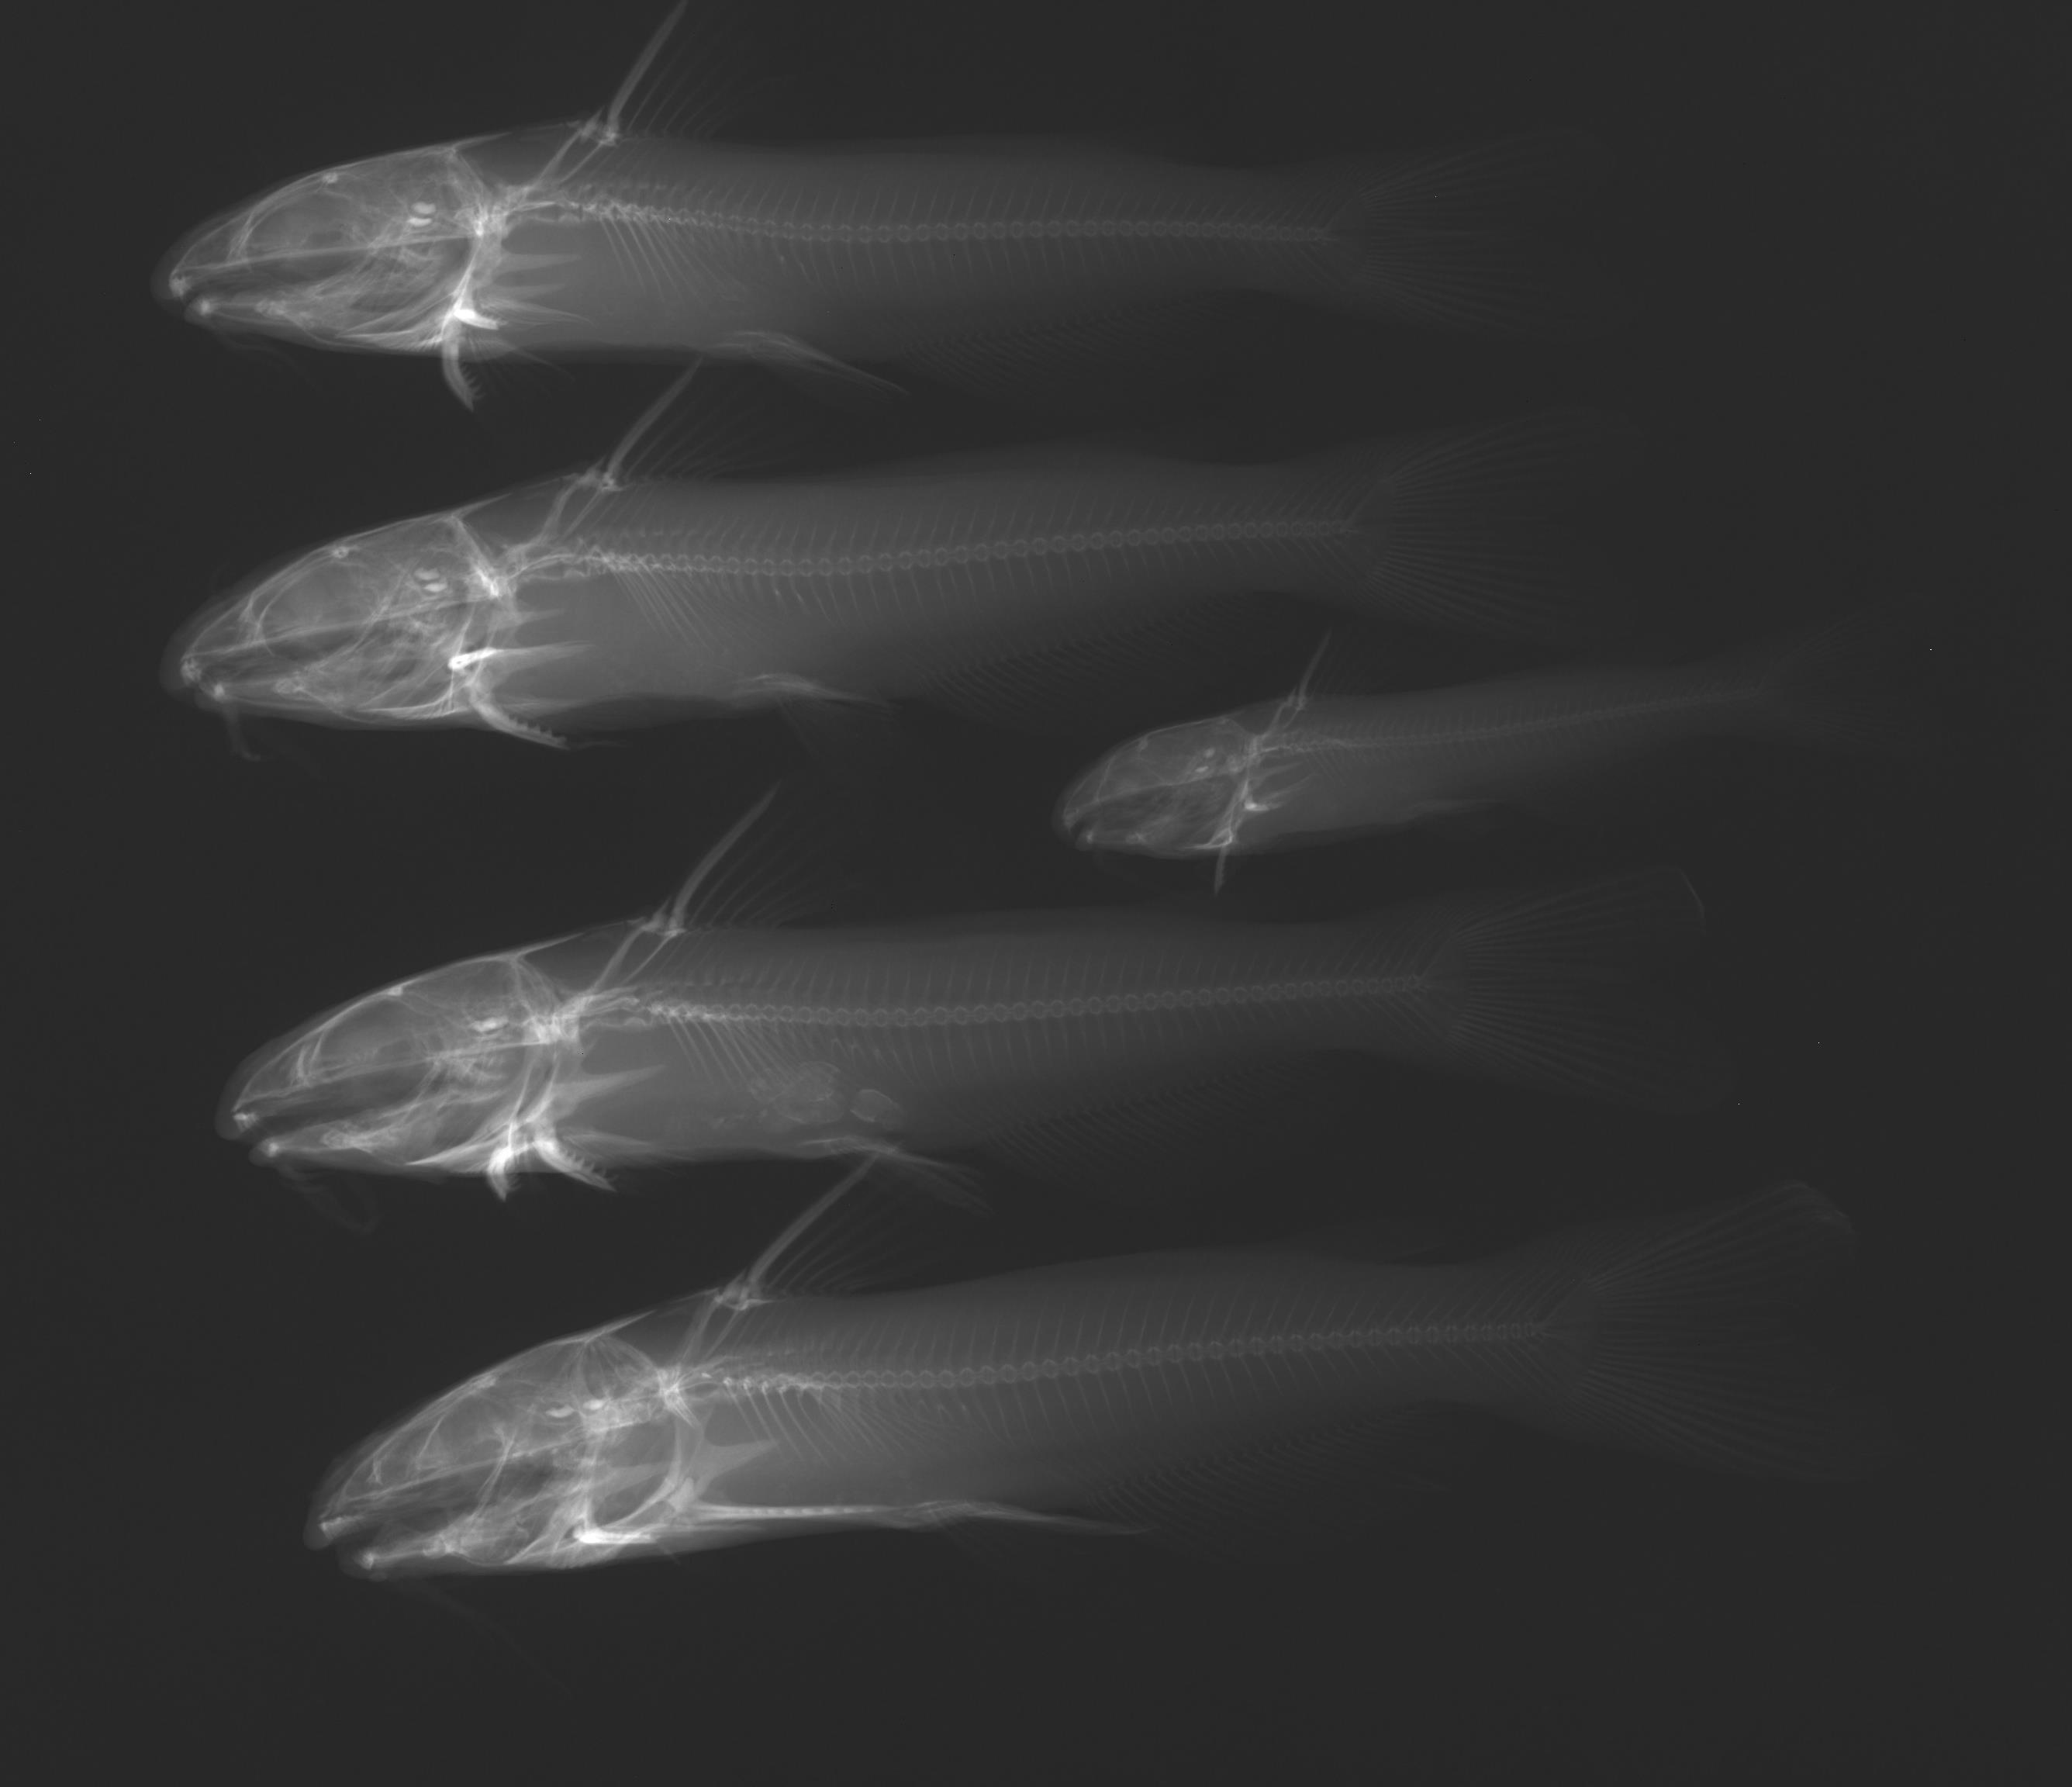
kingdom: Animalia
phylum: Chordata
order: Siluriformes
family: Ictaluridae
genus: Ictalurus
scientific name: Ictalurus punctatus
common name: Channel catfish
